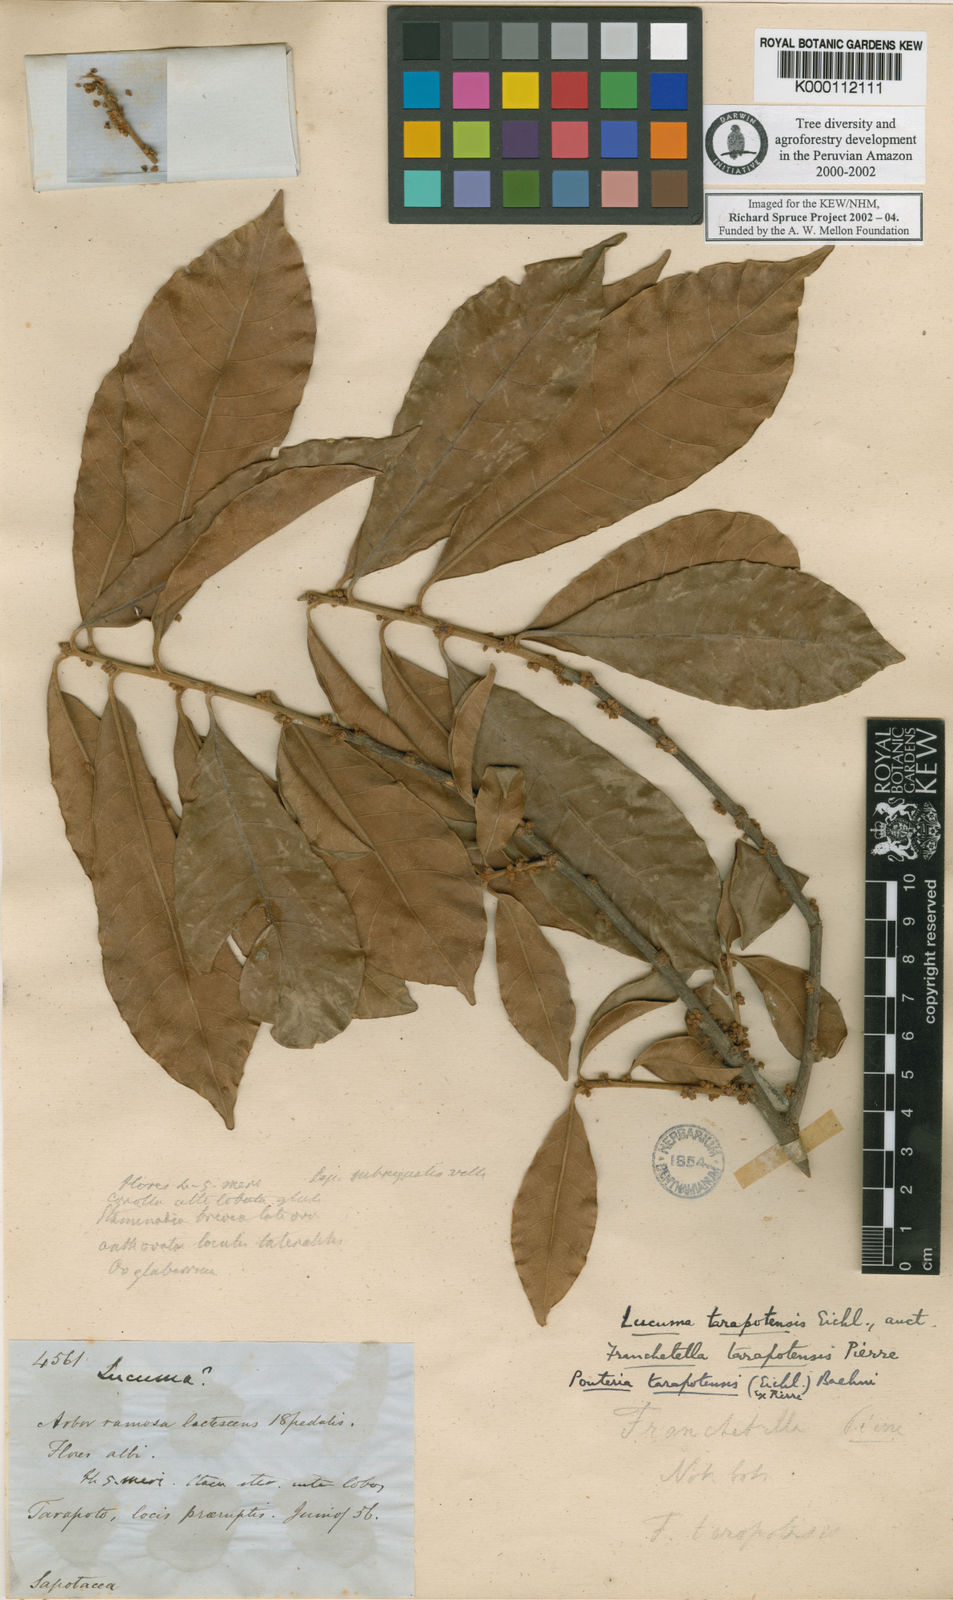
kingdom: Plantae
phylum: Tracheophyta
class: Magnoliopsida
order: Ericales
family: Sapotaceae
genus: Pouteria
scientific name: Pouteria tarapotensis
